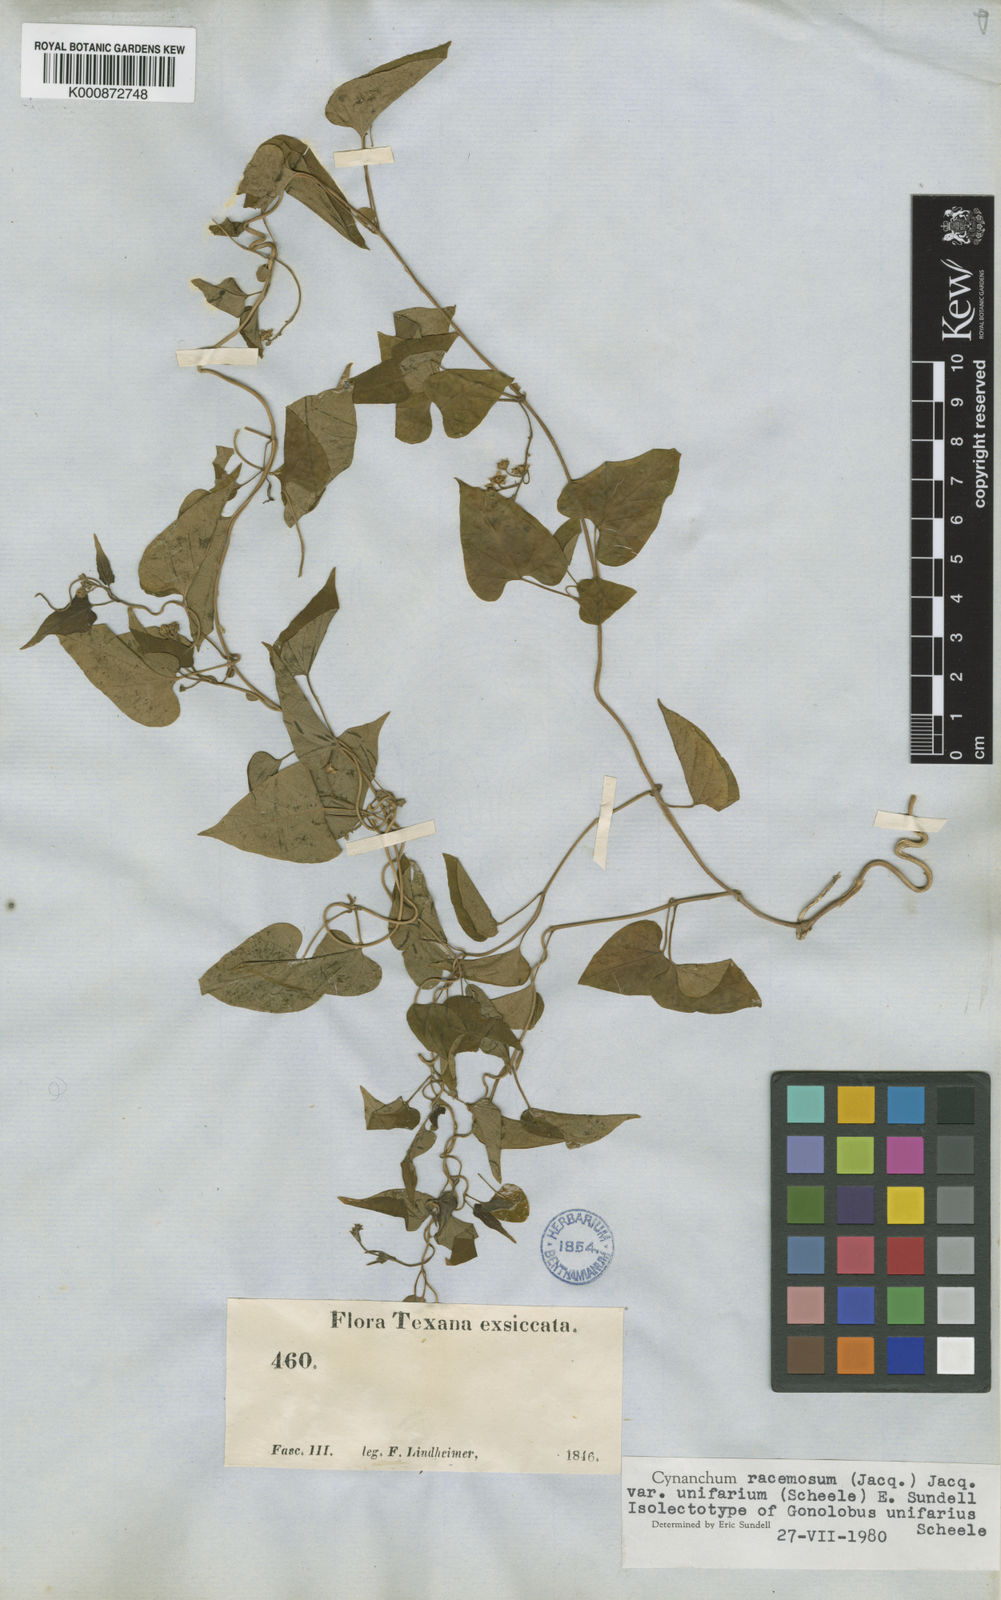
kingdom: Plantae
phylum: Tracheophyta
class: Magnoliopsida
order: Gentianales
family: Apocynaceae
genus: Cynanchum
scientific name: Cynanchum racemosum
